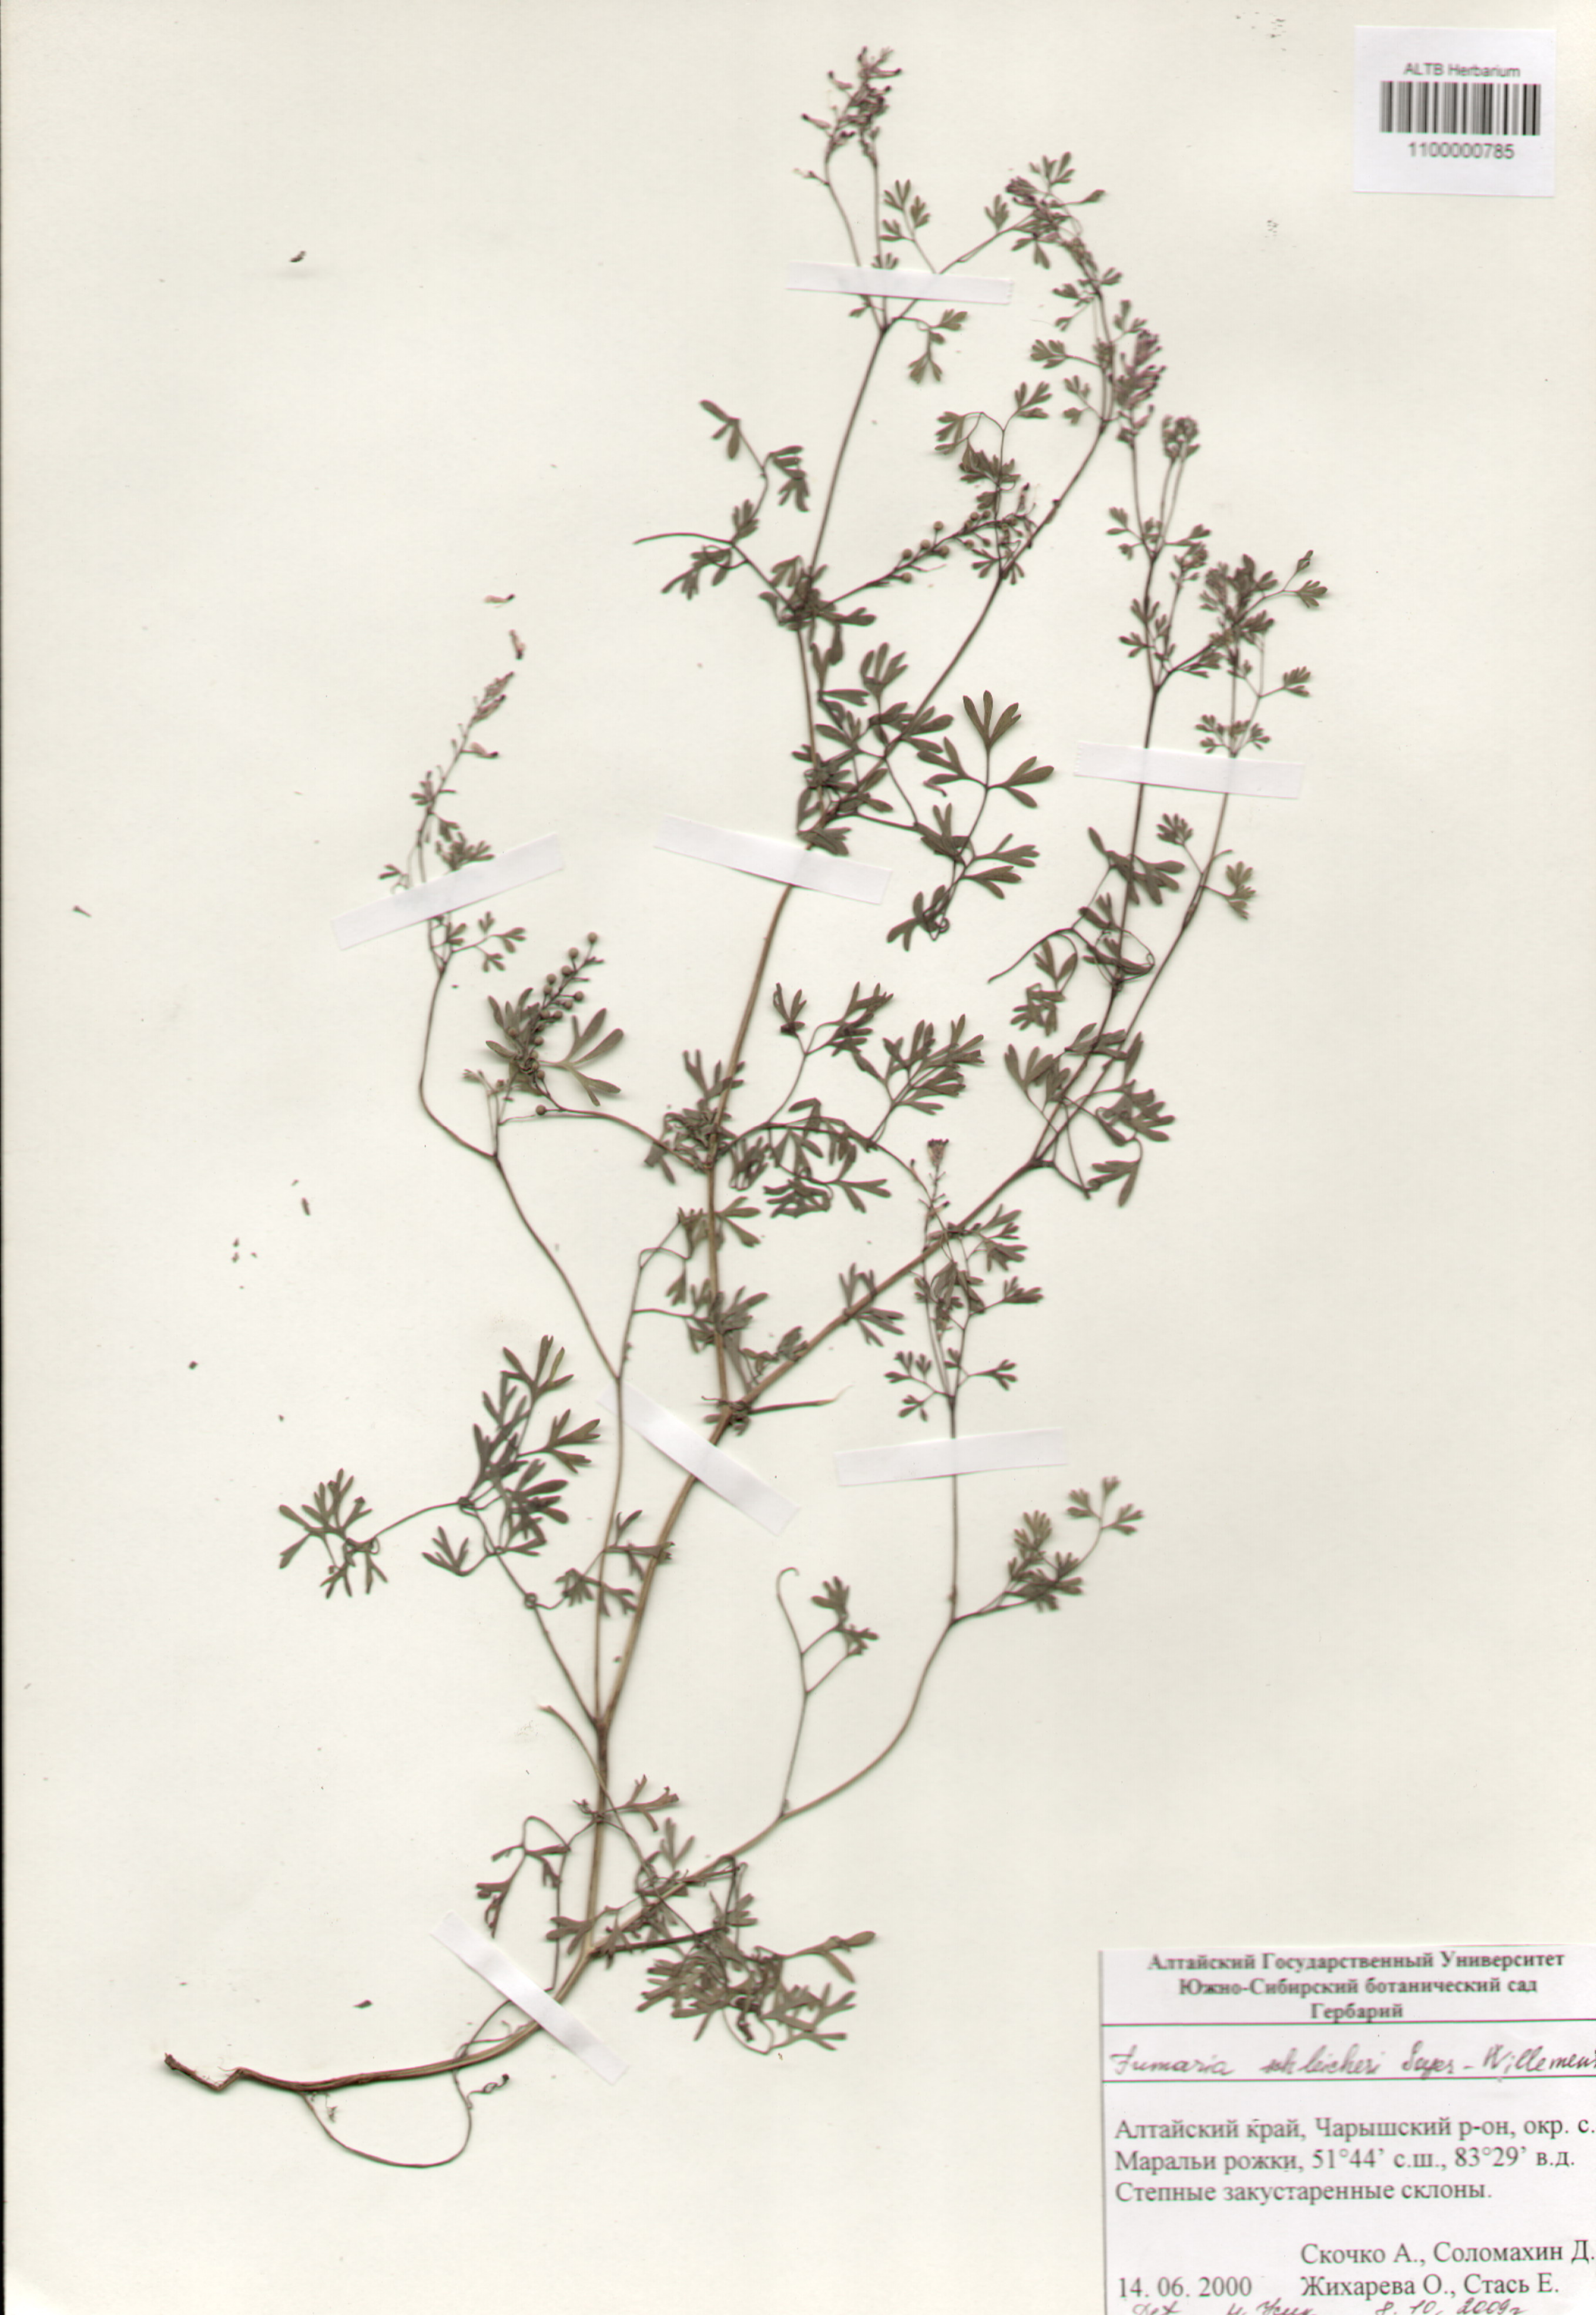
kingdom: Plantae
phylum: Tracheophyta
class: Magnoliopsida
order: Ranunculales
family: Papaveraceae
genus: Fumaria
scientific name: Fumaria schleicheri
